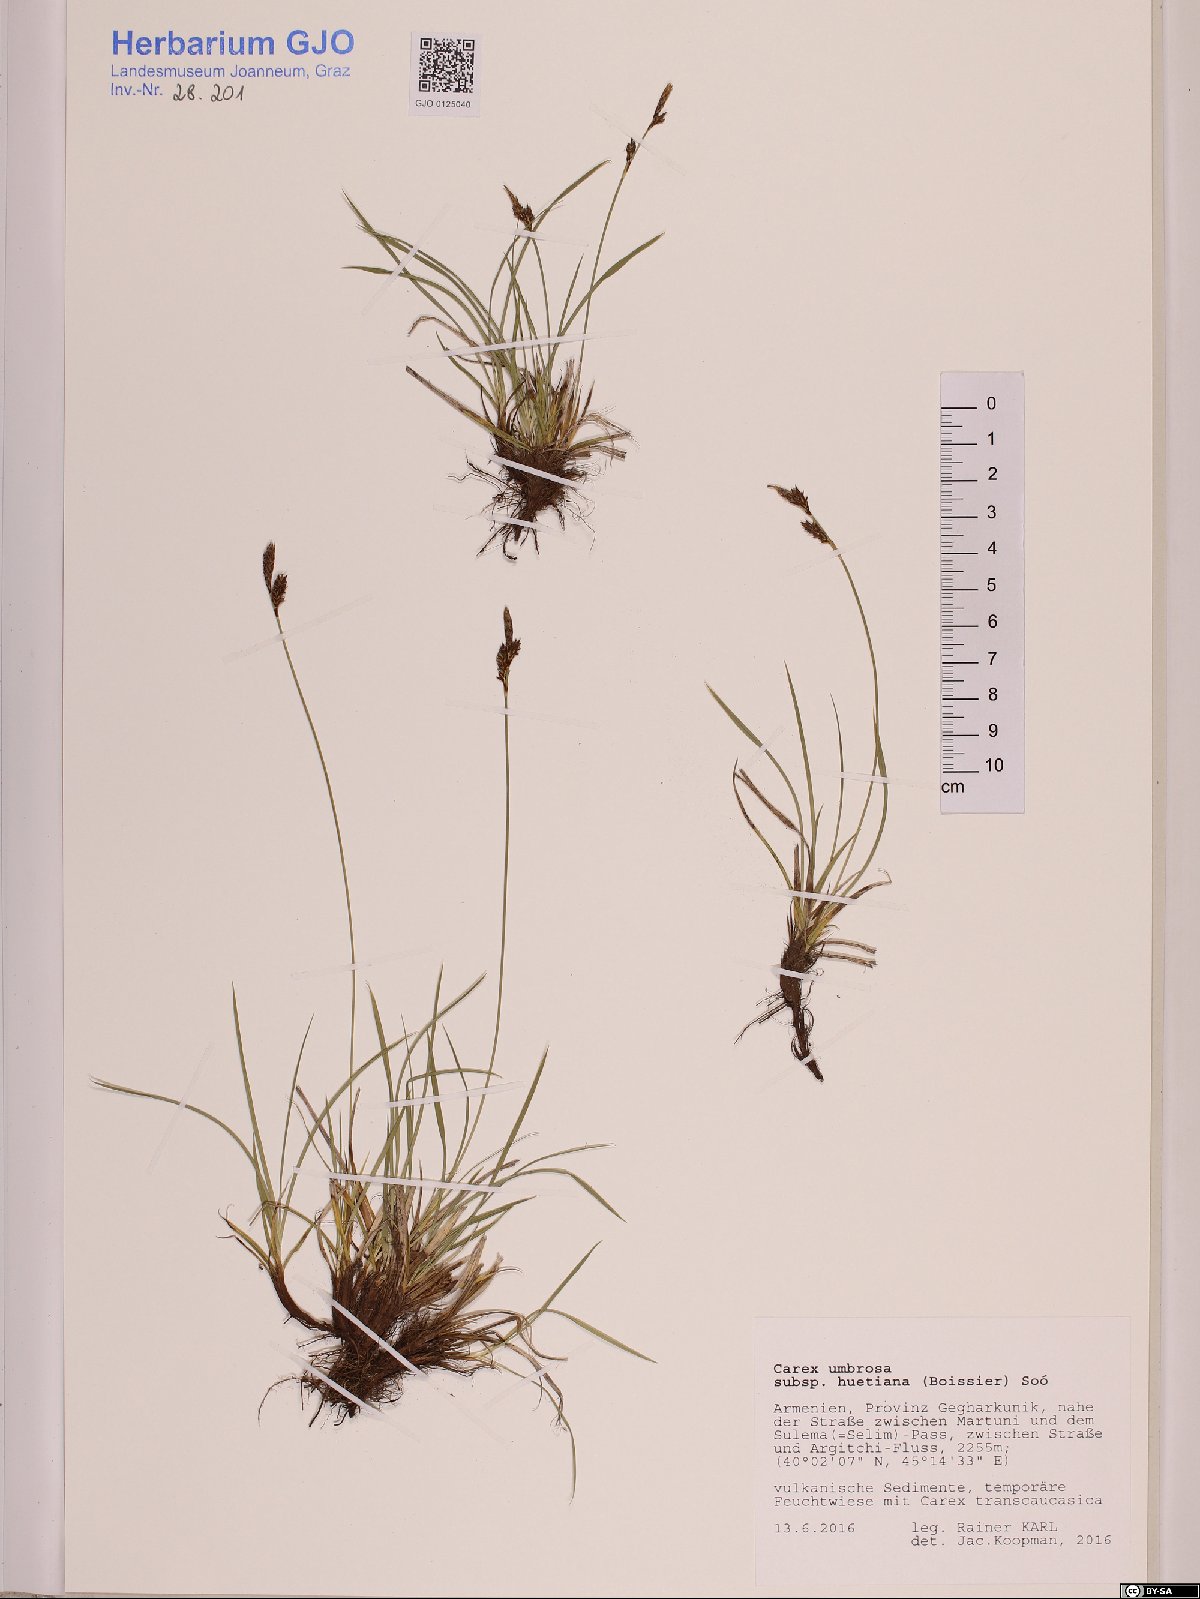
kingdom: Plantae
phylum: Tracheophyta
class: Liliopsida
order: Poales
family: Cyperaceae
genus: Carex
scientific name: Carex umbrosa
